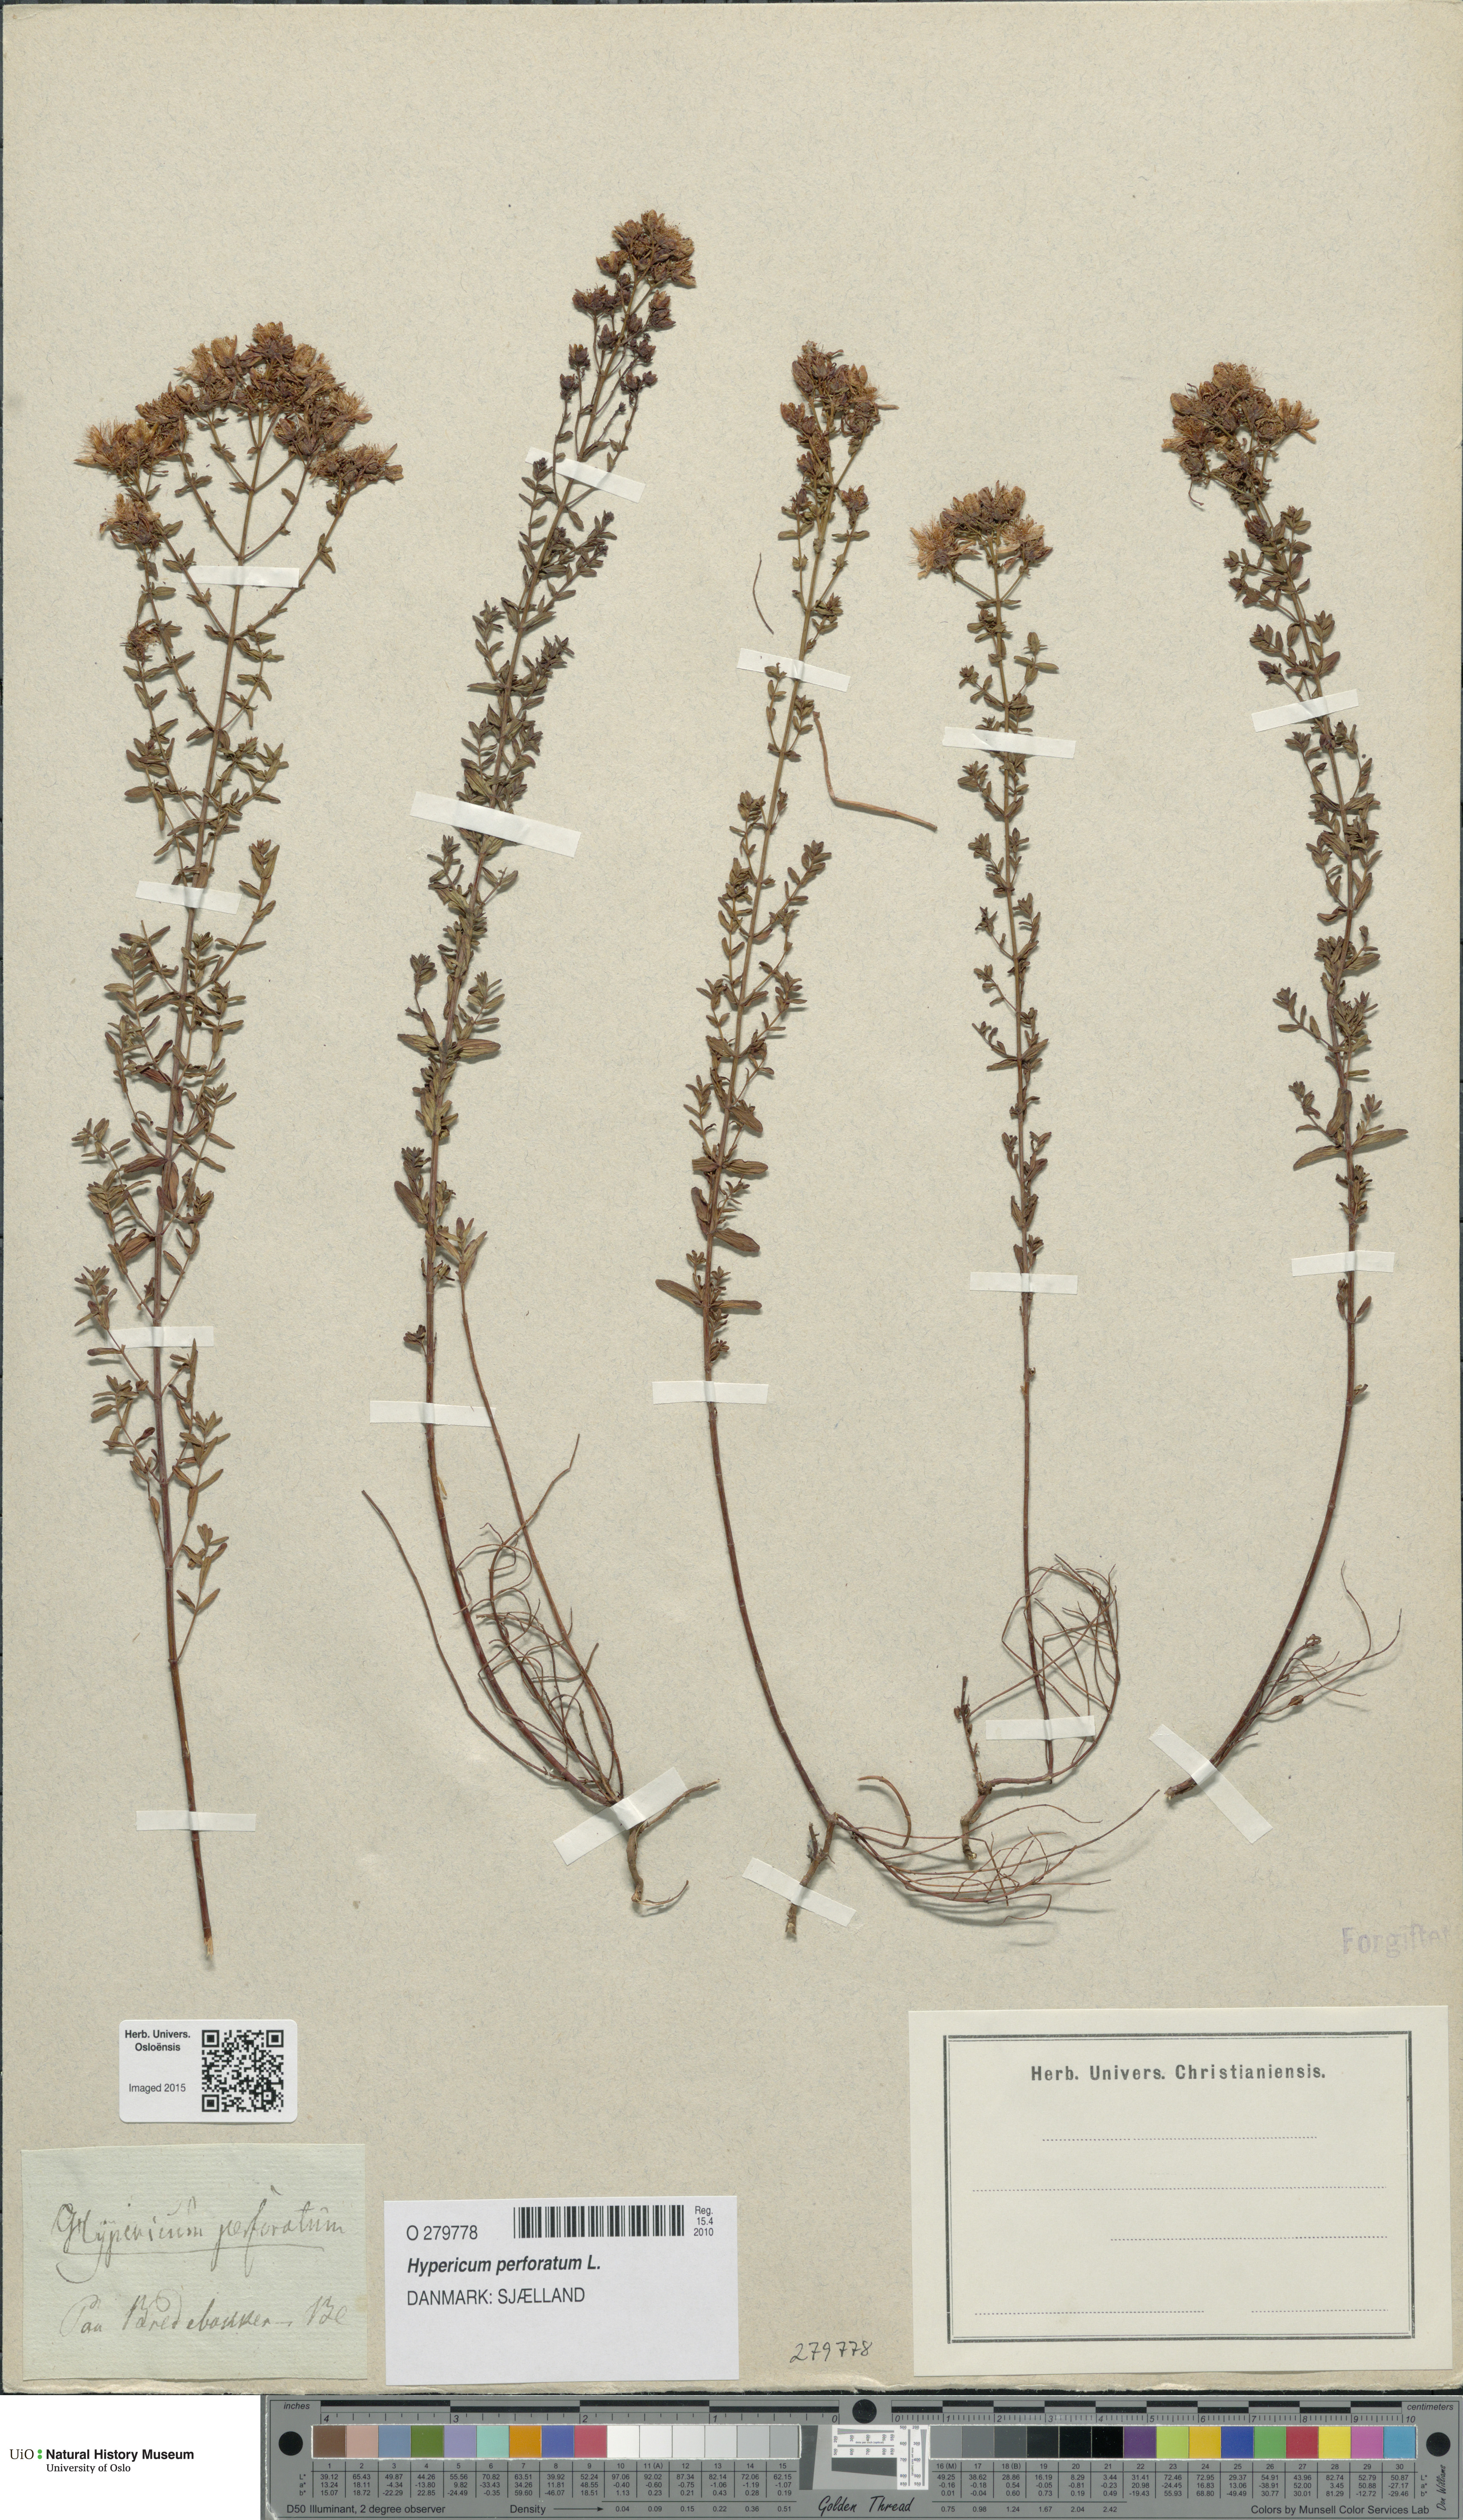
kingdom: Plantae
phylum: Tracheophyta
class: Magnoliopsida
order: Malpighiales
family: Hypericaceae
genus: Hypericum
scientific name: Hypericum perforatum
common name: Common st. johnswort
